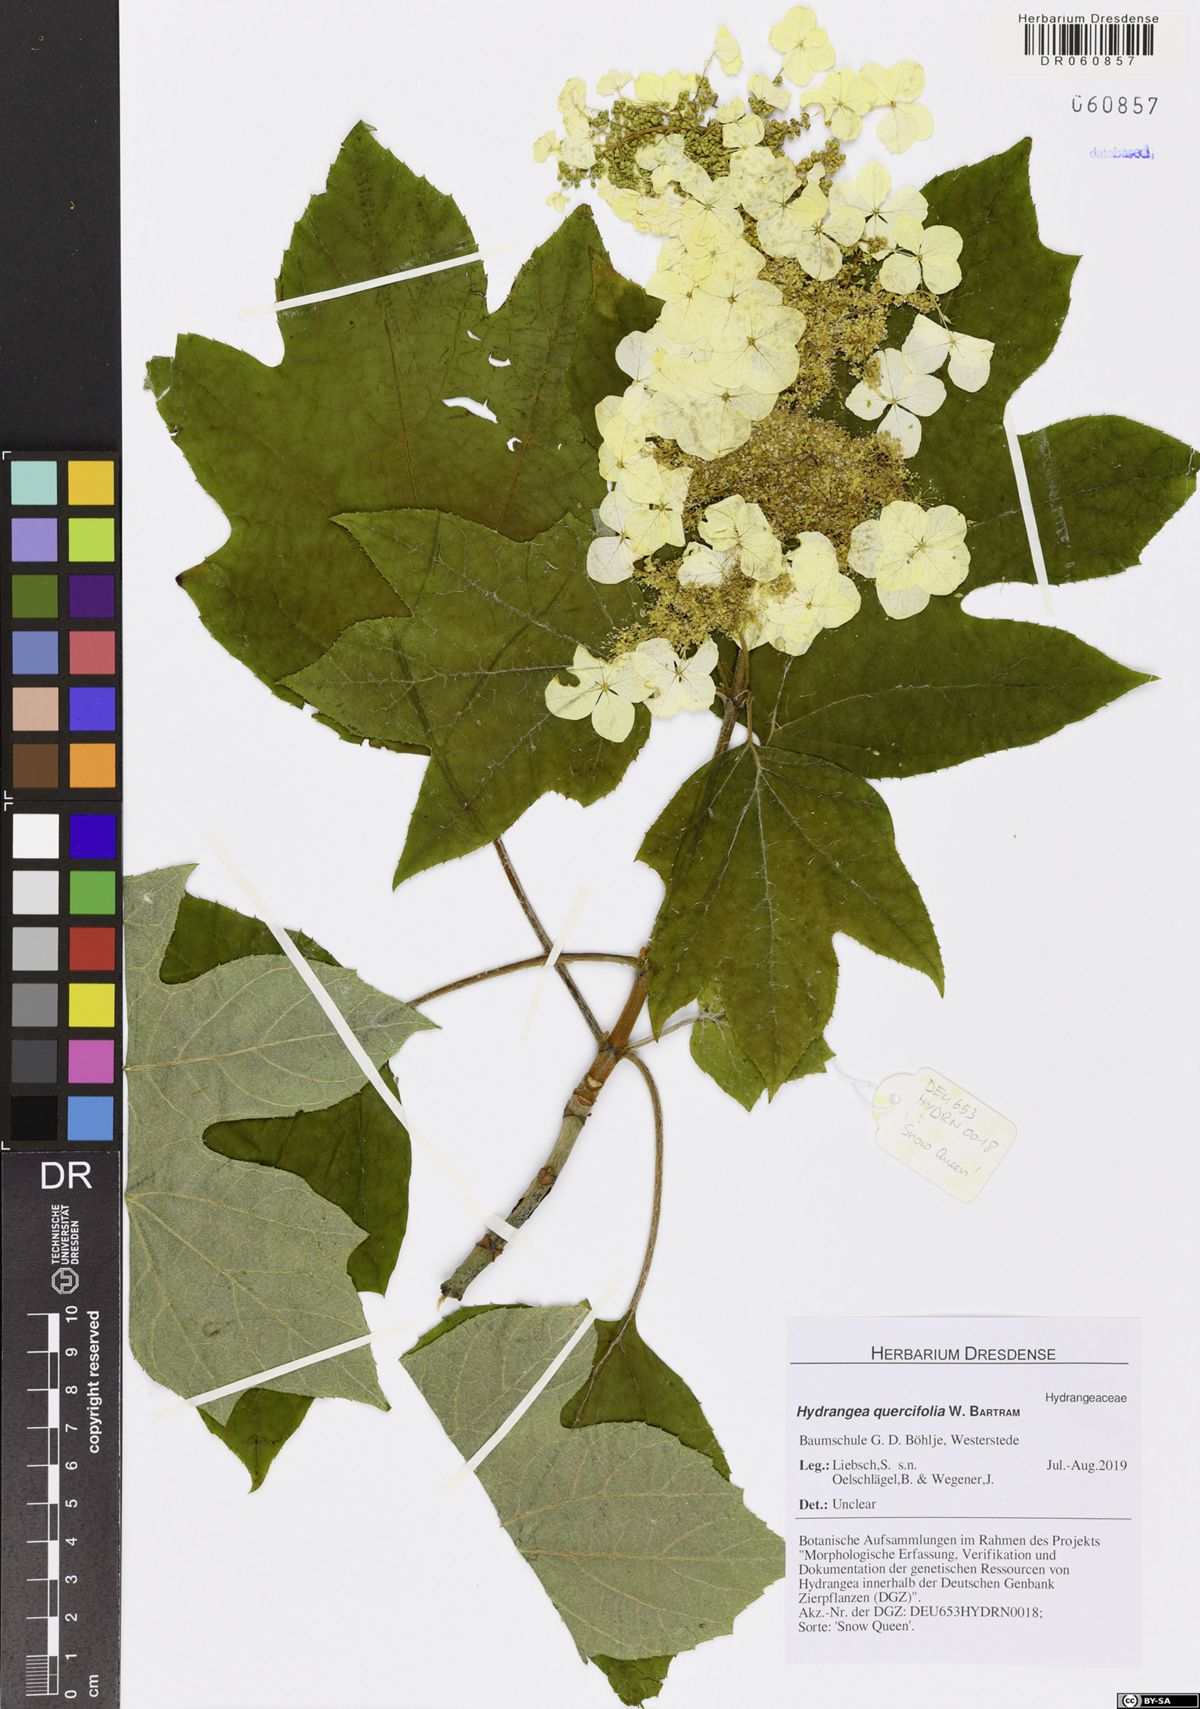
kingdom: Plantae
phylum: Tracheophyta
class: Magnoliopsida
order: Cornales
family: Hydrangeaceae
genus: Hydrangea
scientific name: Hydrangea quercifolia
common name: Oak-leaf hydrangea
